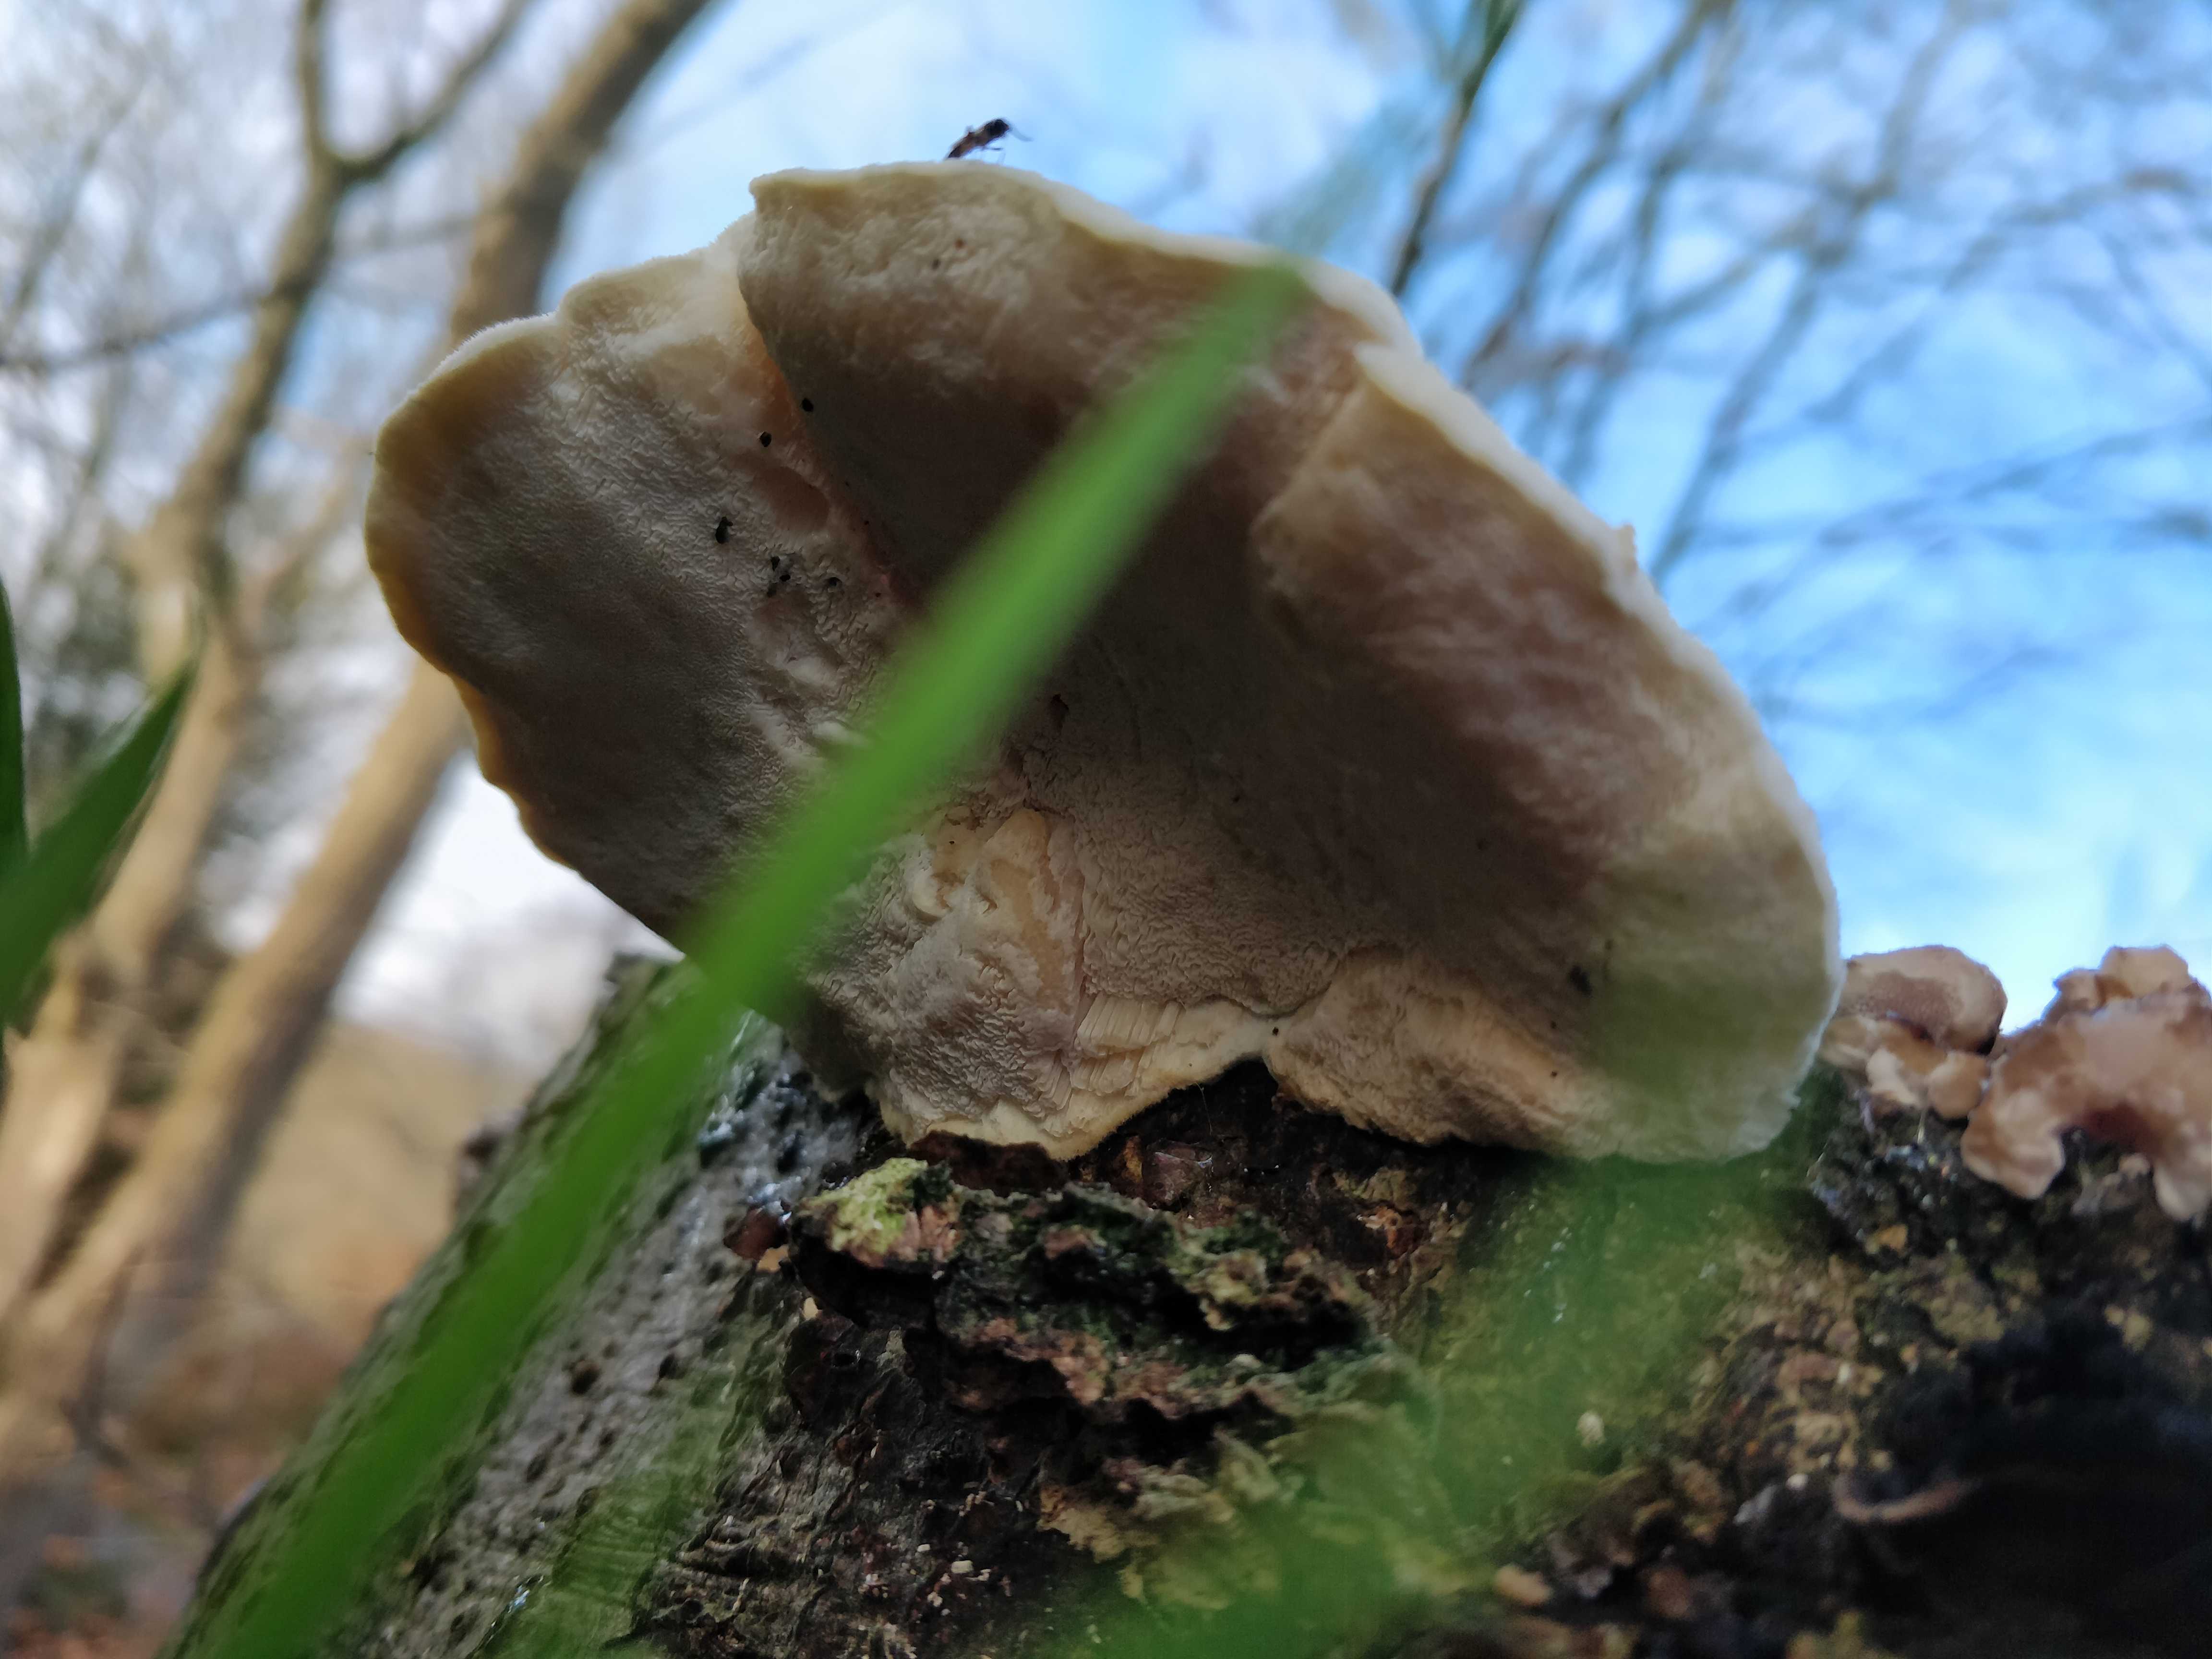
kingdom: Fungi
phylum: Basidiomycota
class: Agaricomycetes
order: Polyporales
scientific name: Polyporales
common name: poresvampordenen
